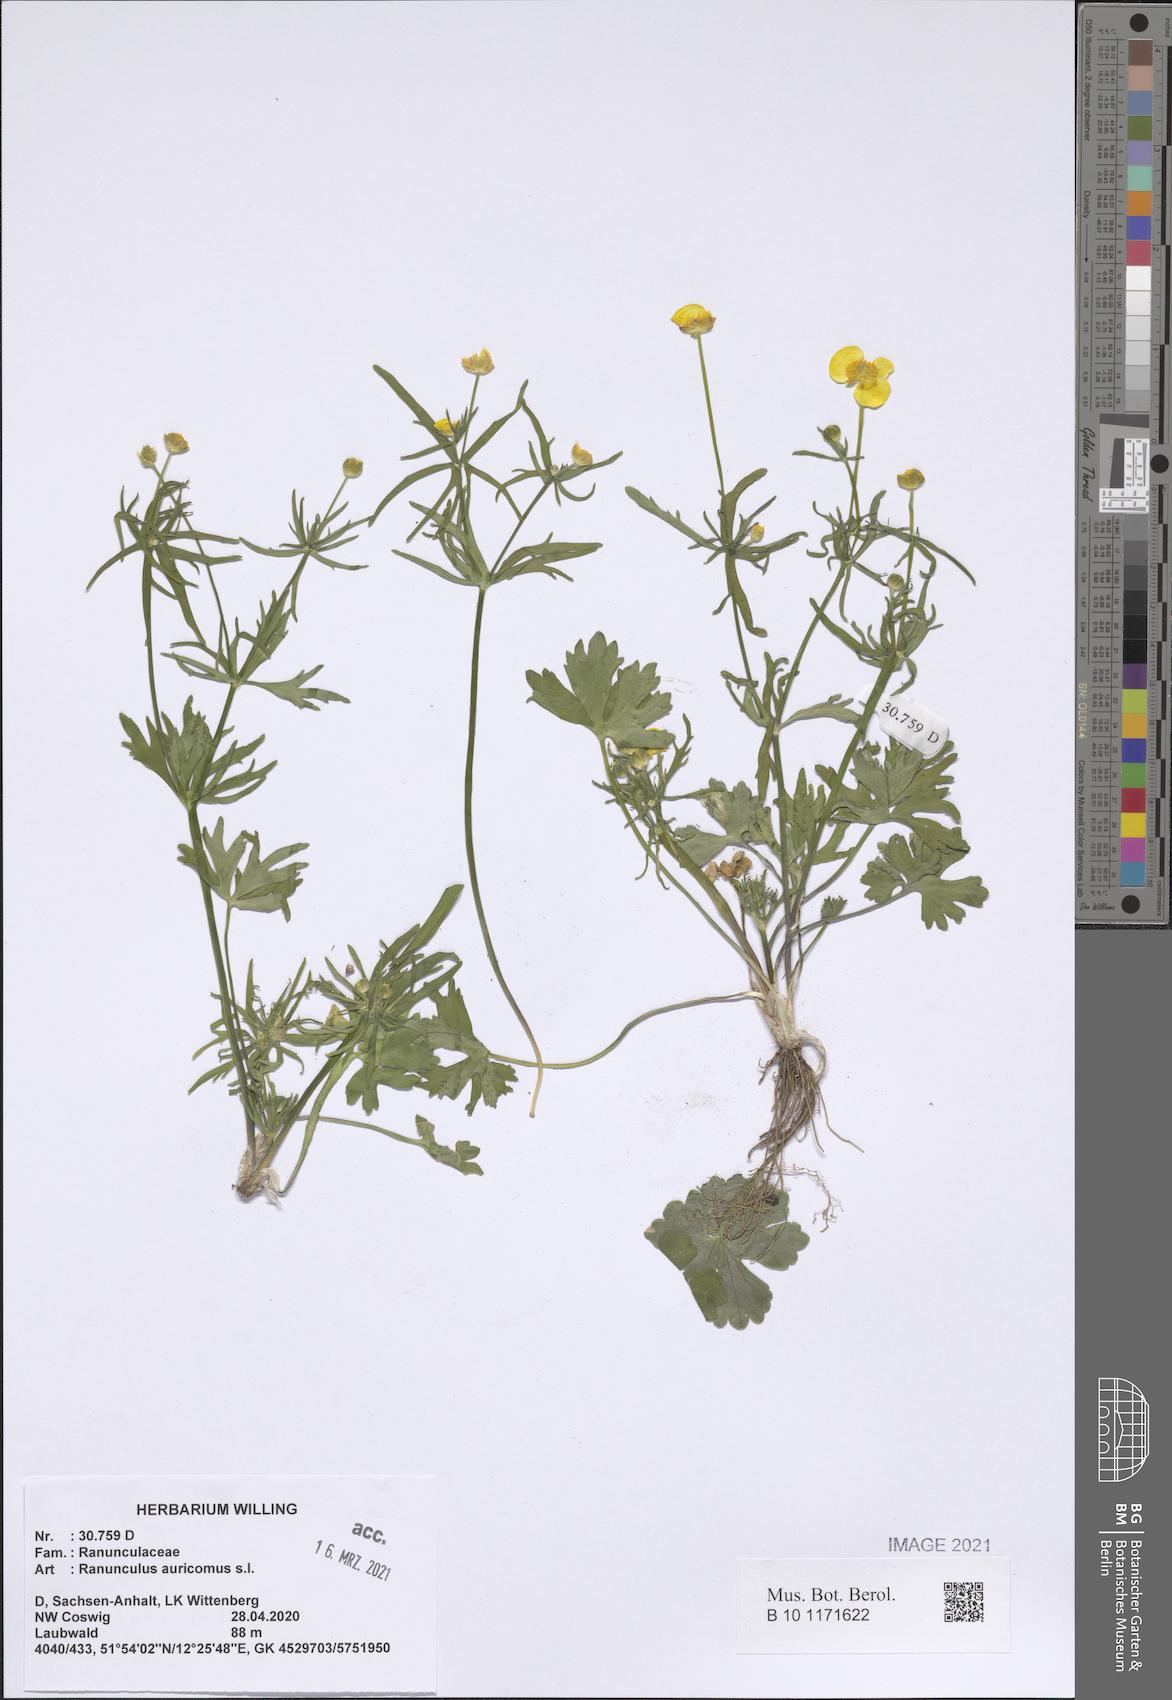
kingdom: Plantae
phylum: Tracheophyta
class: Magnoliopsida
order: Ranunculales
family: Ranunculaceae
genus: Ranunculus
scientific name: Ranunculus auricomus
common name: Goldilocks buttercup
